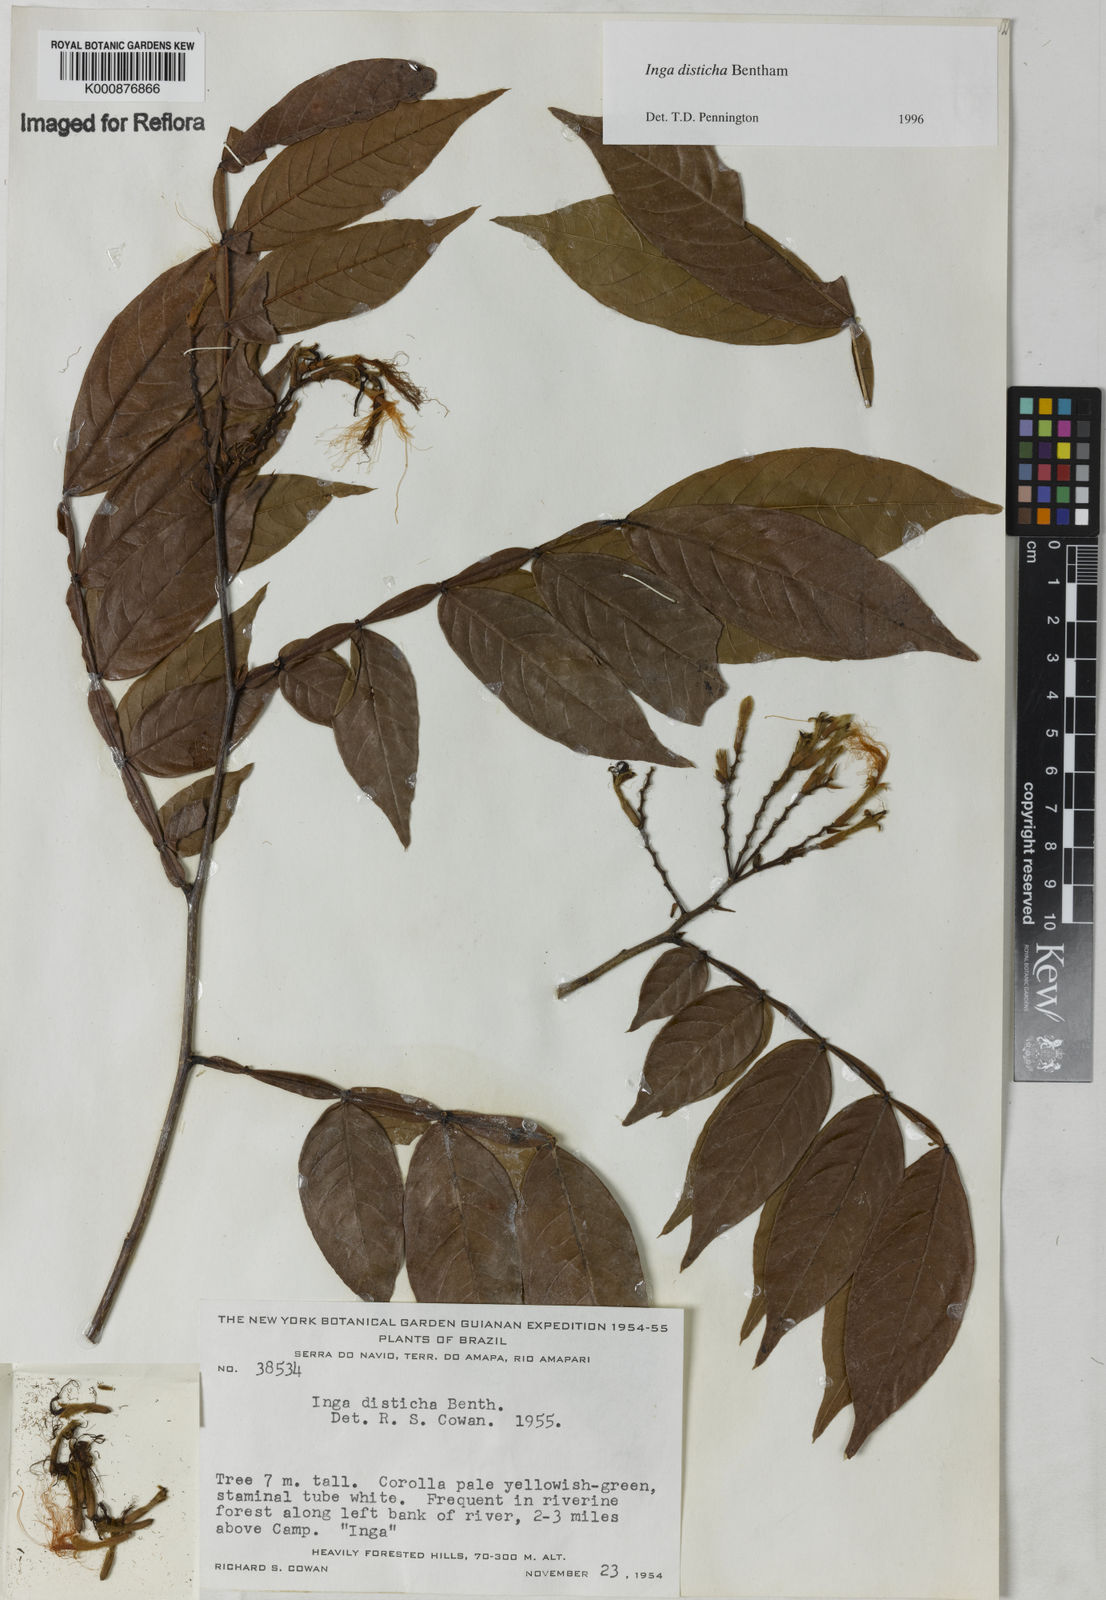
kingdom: Plantae
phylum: Tracheophyta
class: Magnoliopsida
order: Fabales
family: Fabaceae
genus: Inga
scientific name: Inga disticha
